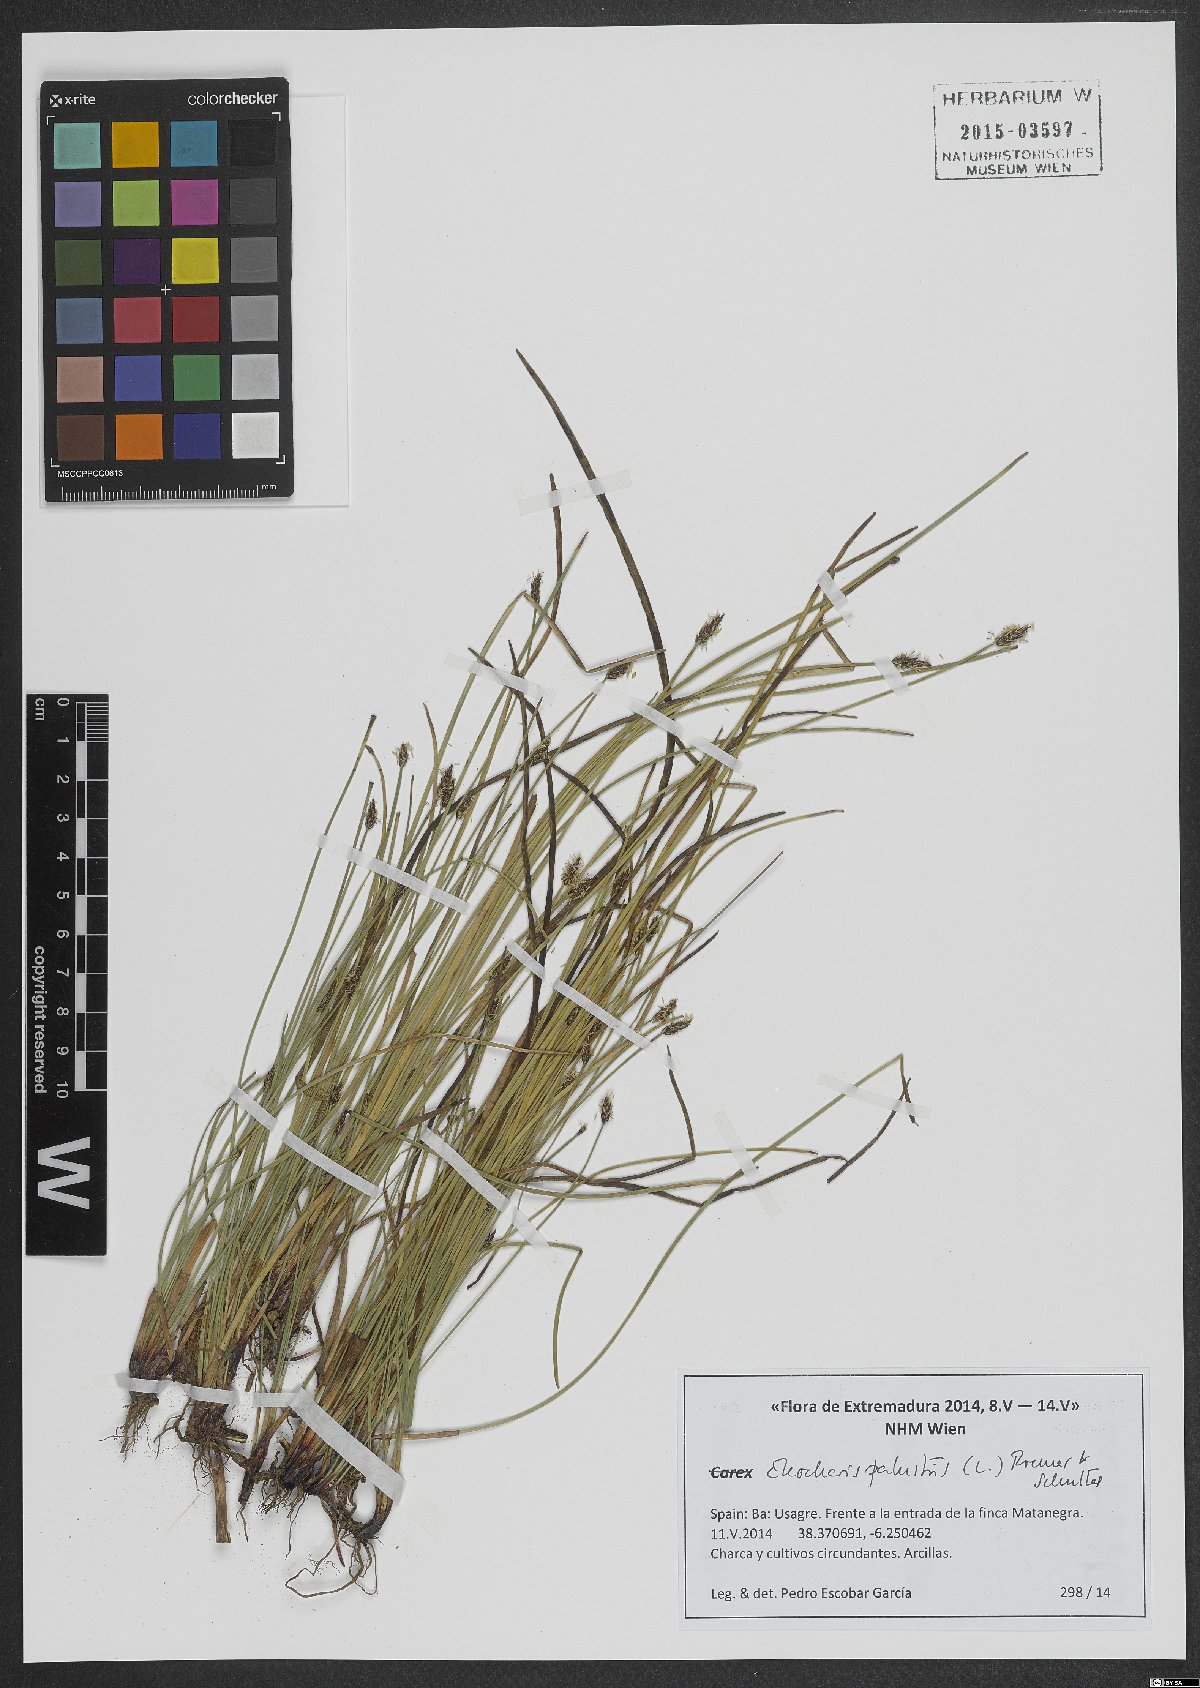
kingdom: Plantae
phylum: Tracheophyta
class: Liliopsida
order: Poales
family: Cyperaceae
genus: Eleocharis
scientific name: Eleocharis palustris
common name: Common spike-rush
